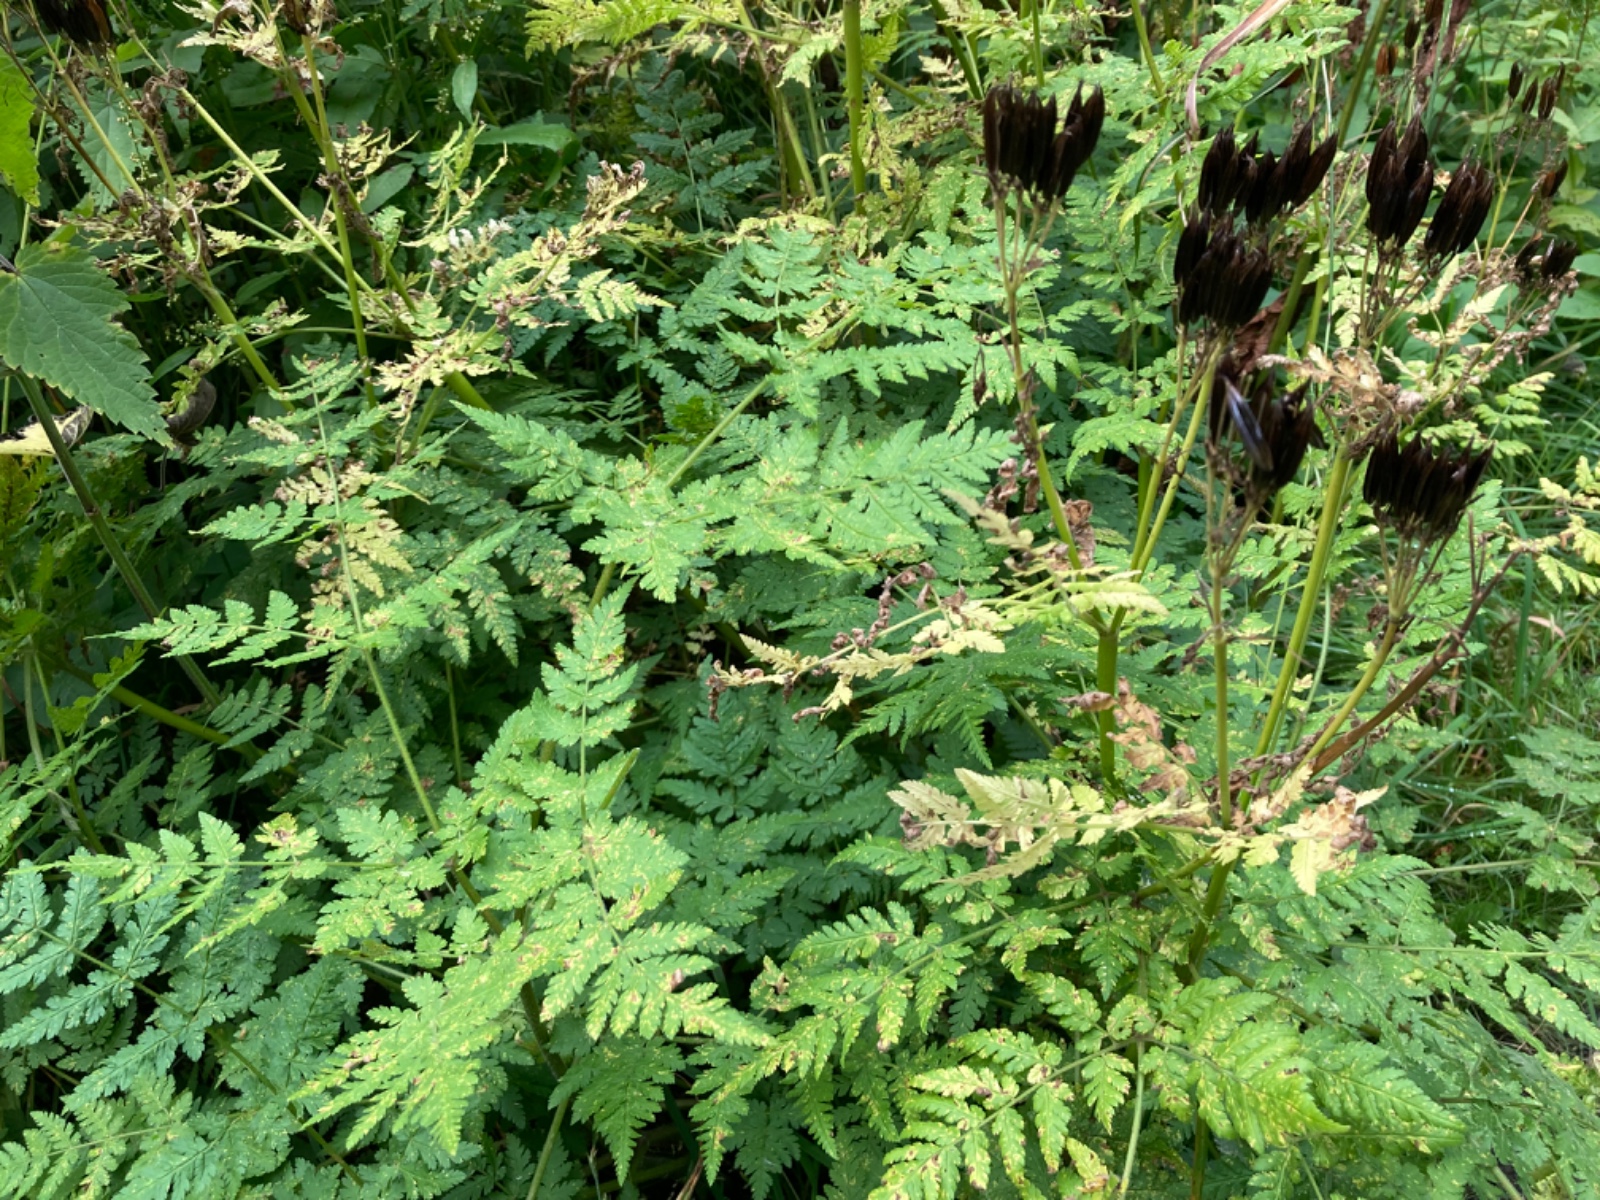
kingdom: Fungi
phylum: Basidiomycota
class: Pucciniomycetes
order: Pucciniales
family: Pucciniaceae
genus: Puccinia
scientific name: Puccinia chaerophylli
